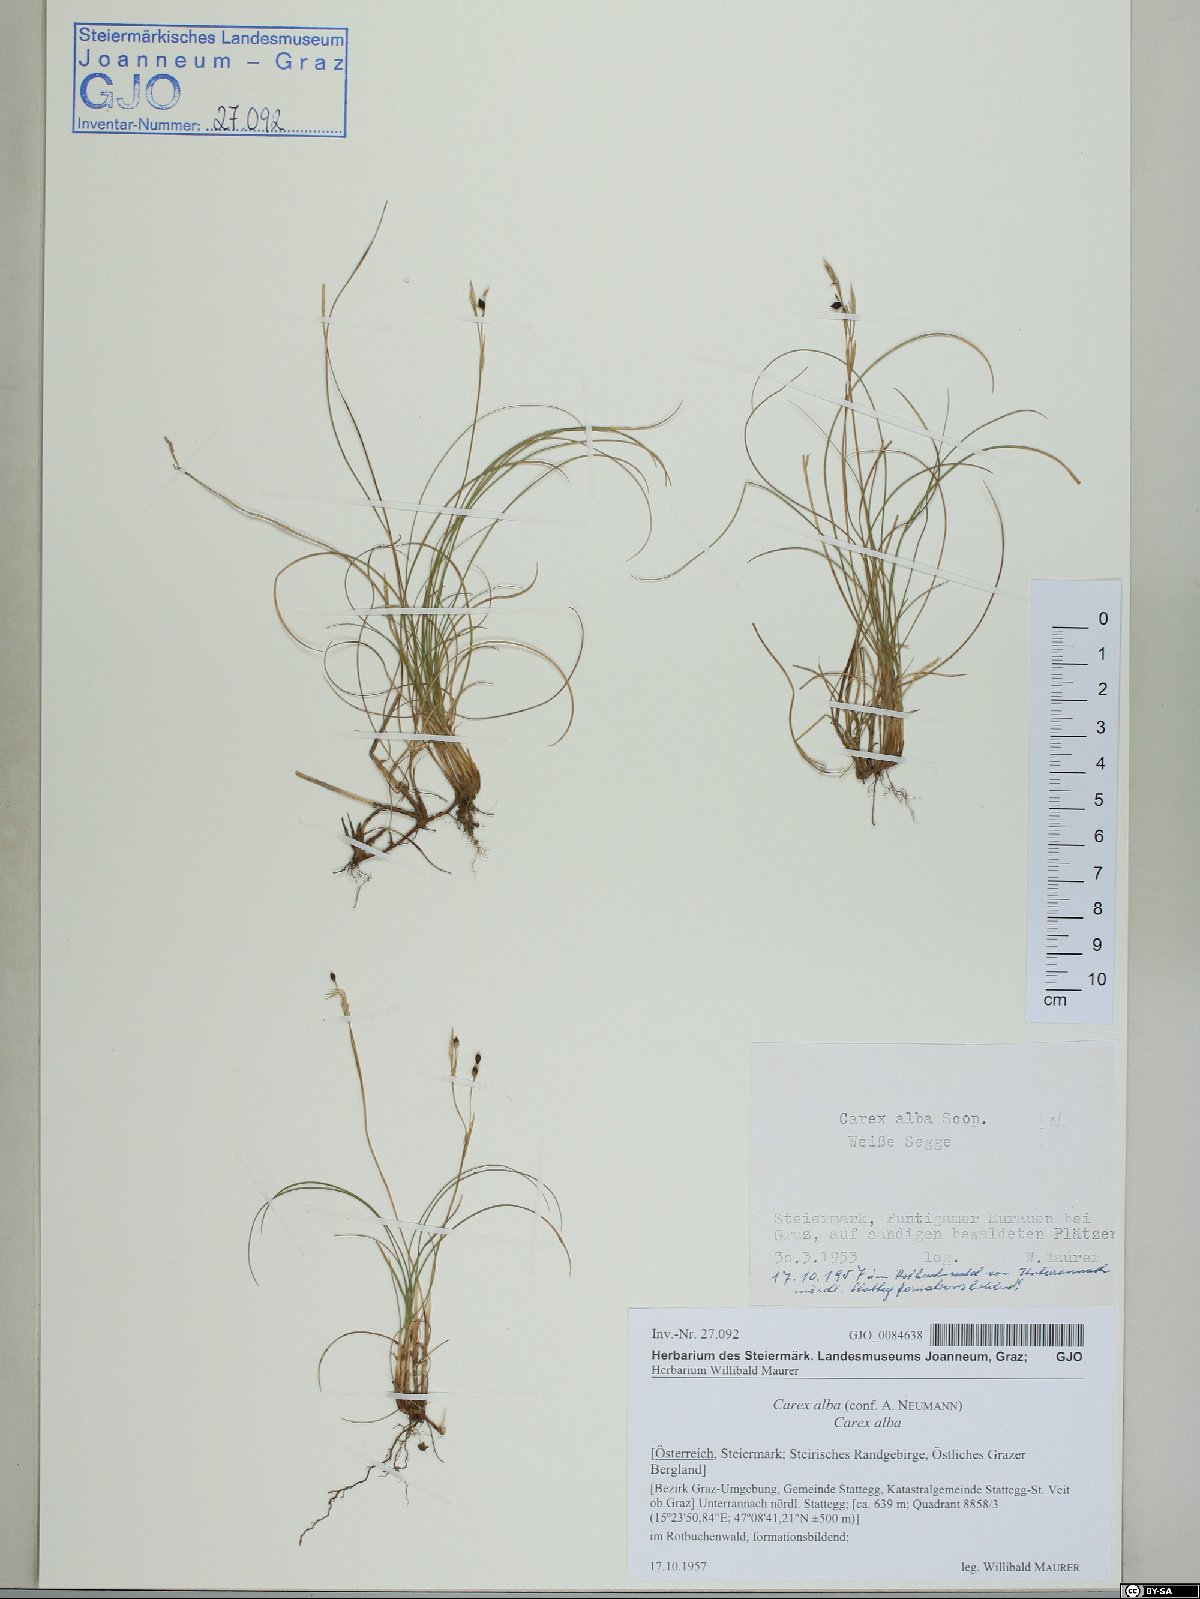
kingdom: Plantae
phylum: Tracheophyta
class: Liliopsida
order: Poales
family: Cyperaceae
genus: Carex
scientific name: Carex alba
